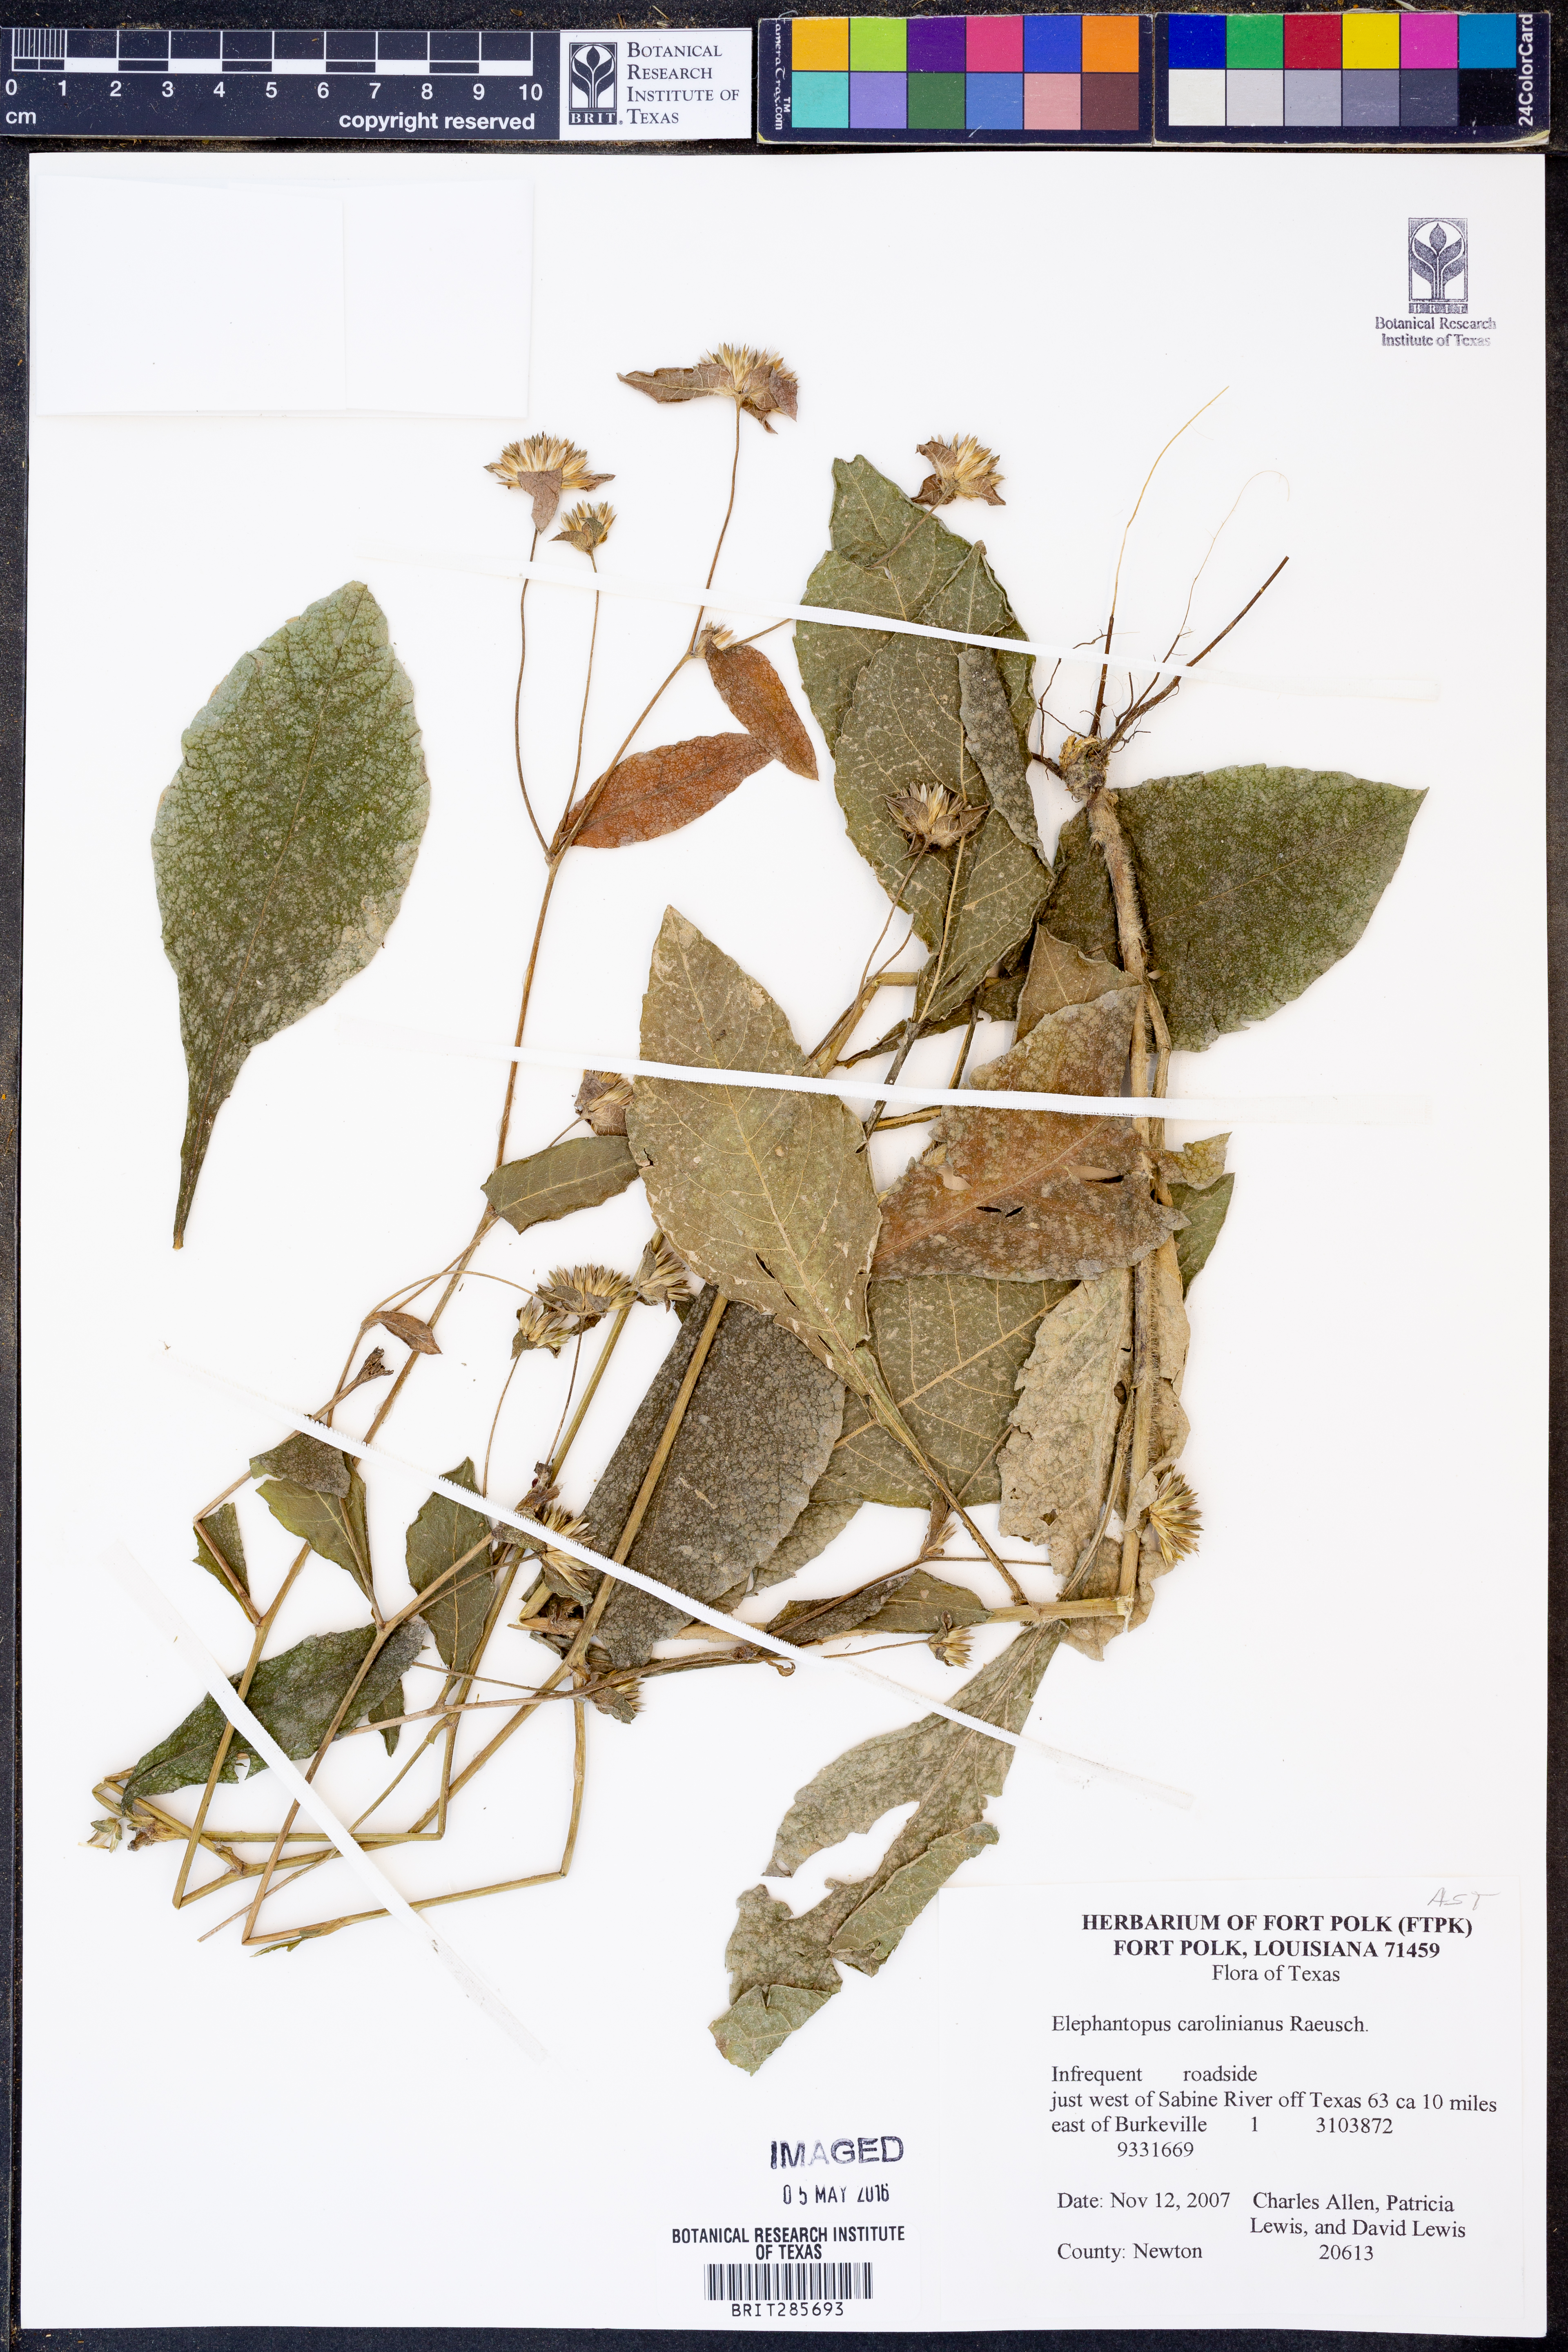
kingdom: Plantae
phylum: Tracheophyta
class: Magnoliopsida
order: Asterales
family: Asteraceae
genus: Elephantopus
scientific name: Elephantopus carolinianus
